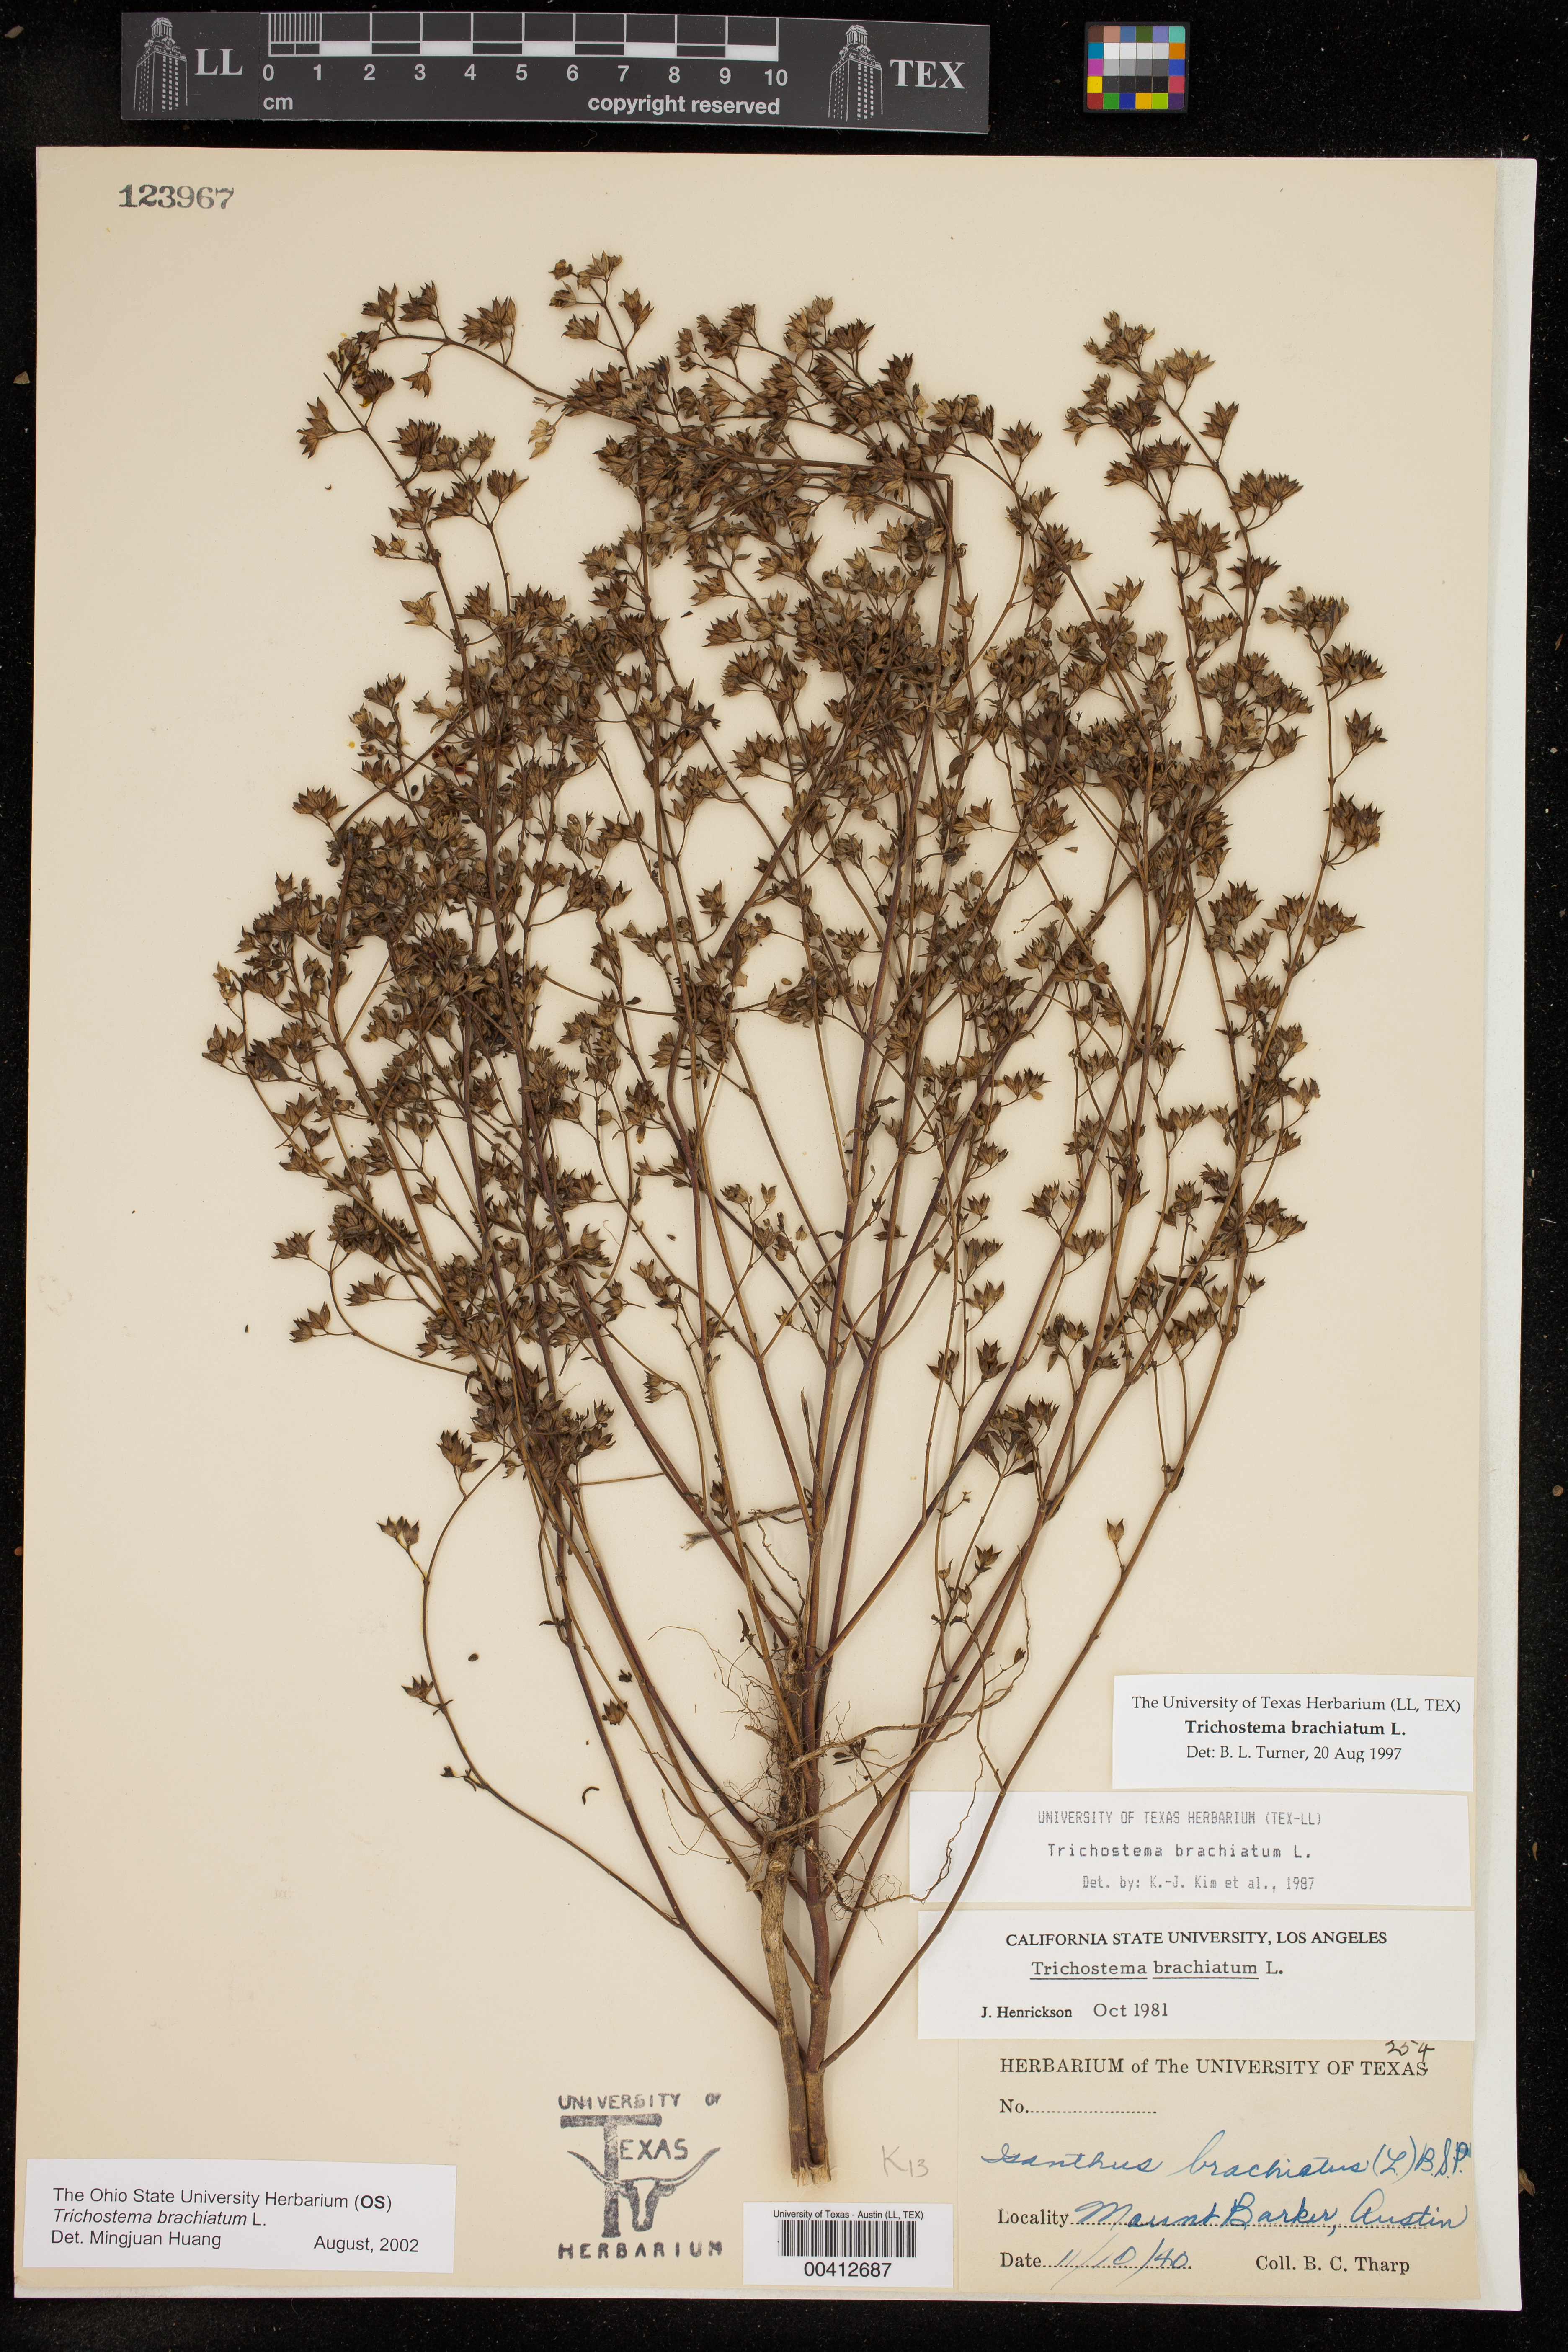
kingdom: Plantae
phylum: Tracheophyta
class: Magnoliopsida
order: Lamiales
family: Lamiaceae
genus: Trichostema
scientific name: Trichostema brachiatum
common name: False pennyroyal
